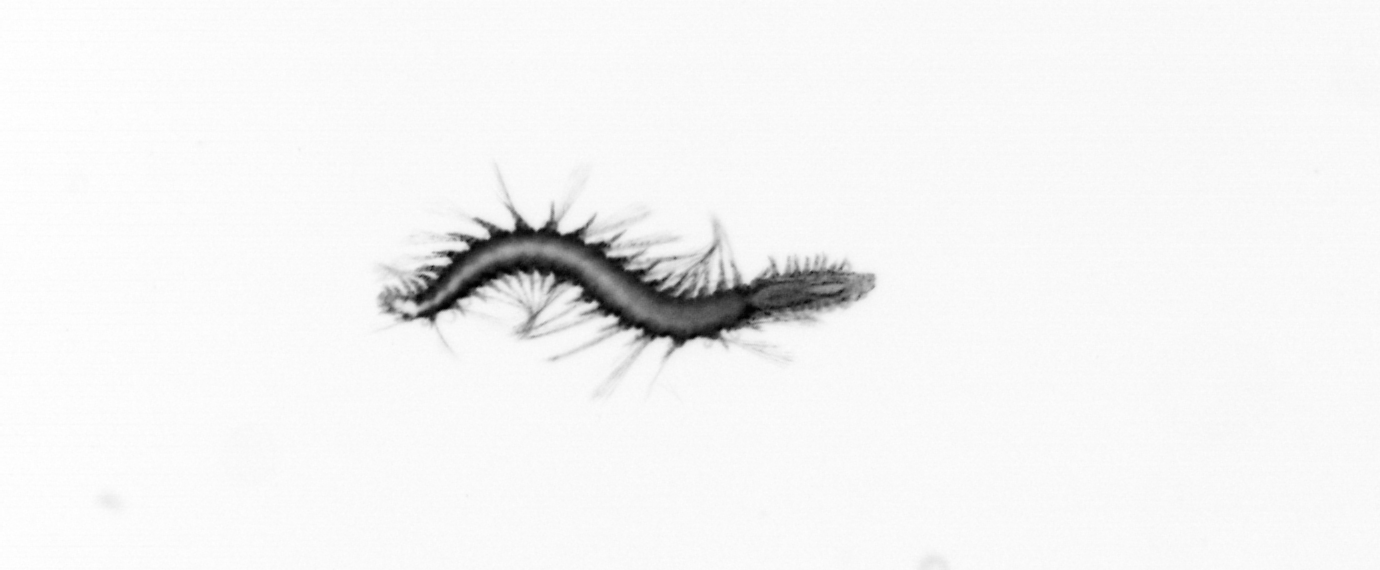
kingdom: Animalia
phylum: Annelida
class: Polychaeta
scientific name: Polychaeta
